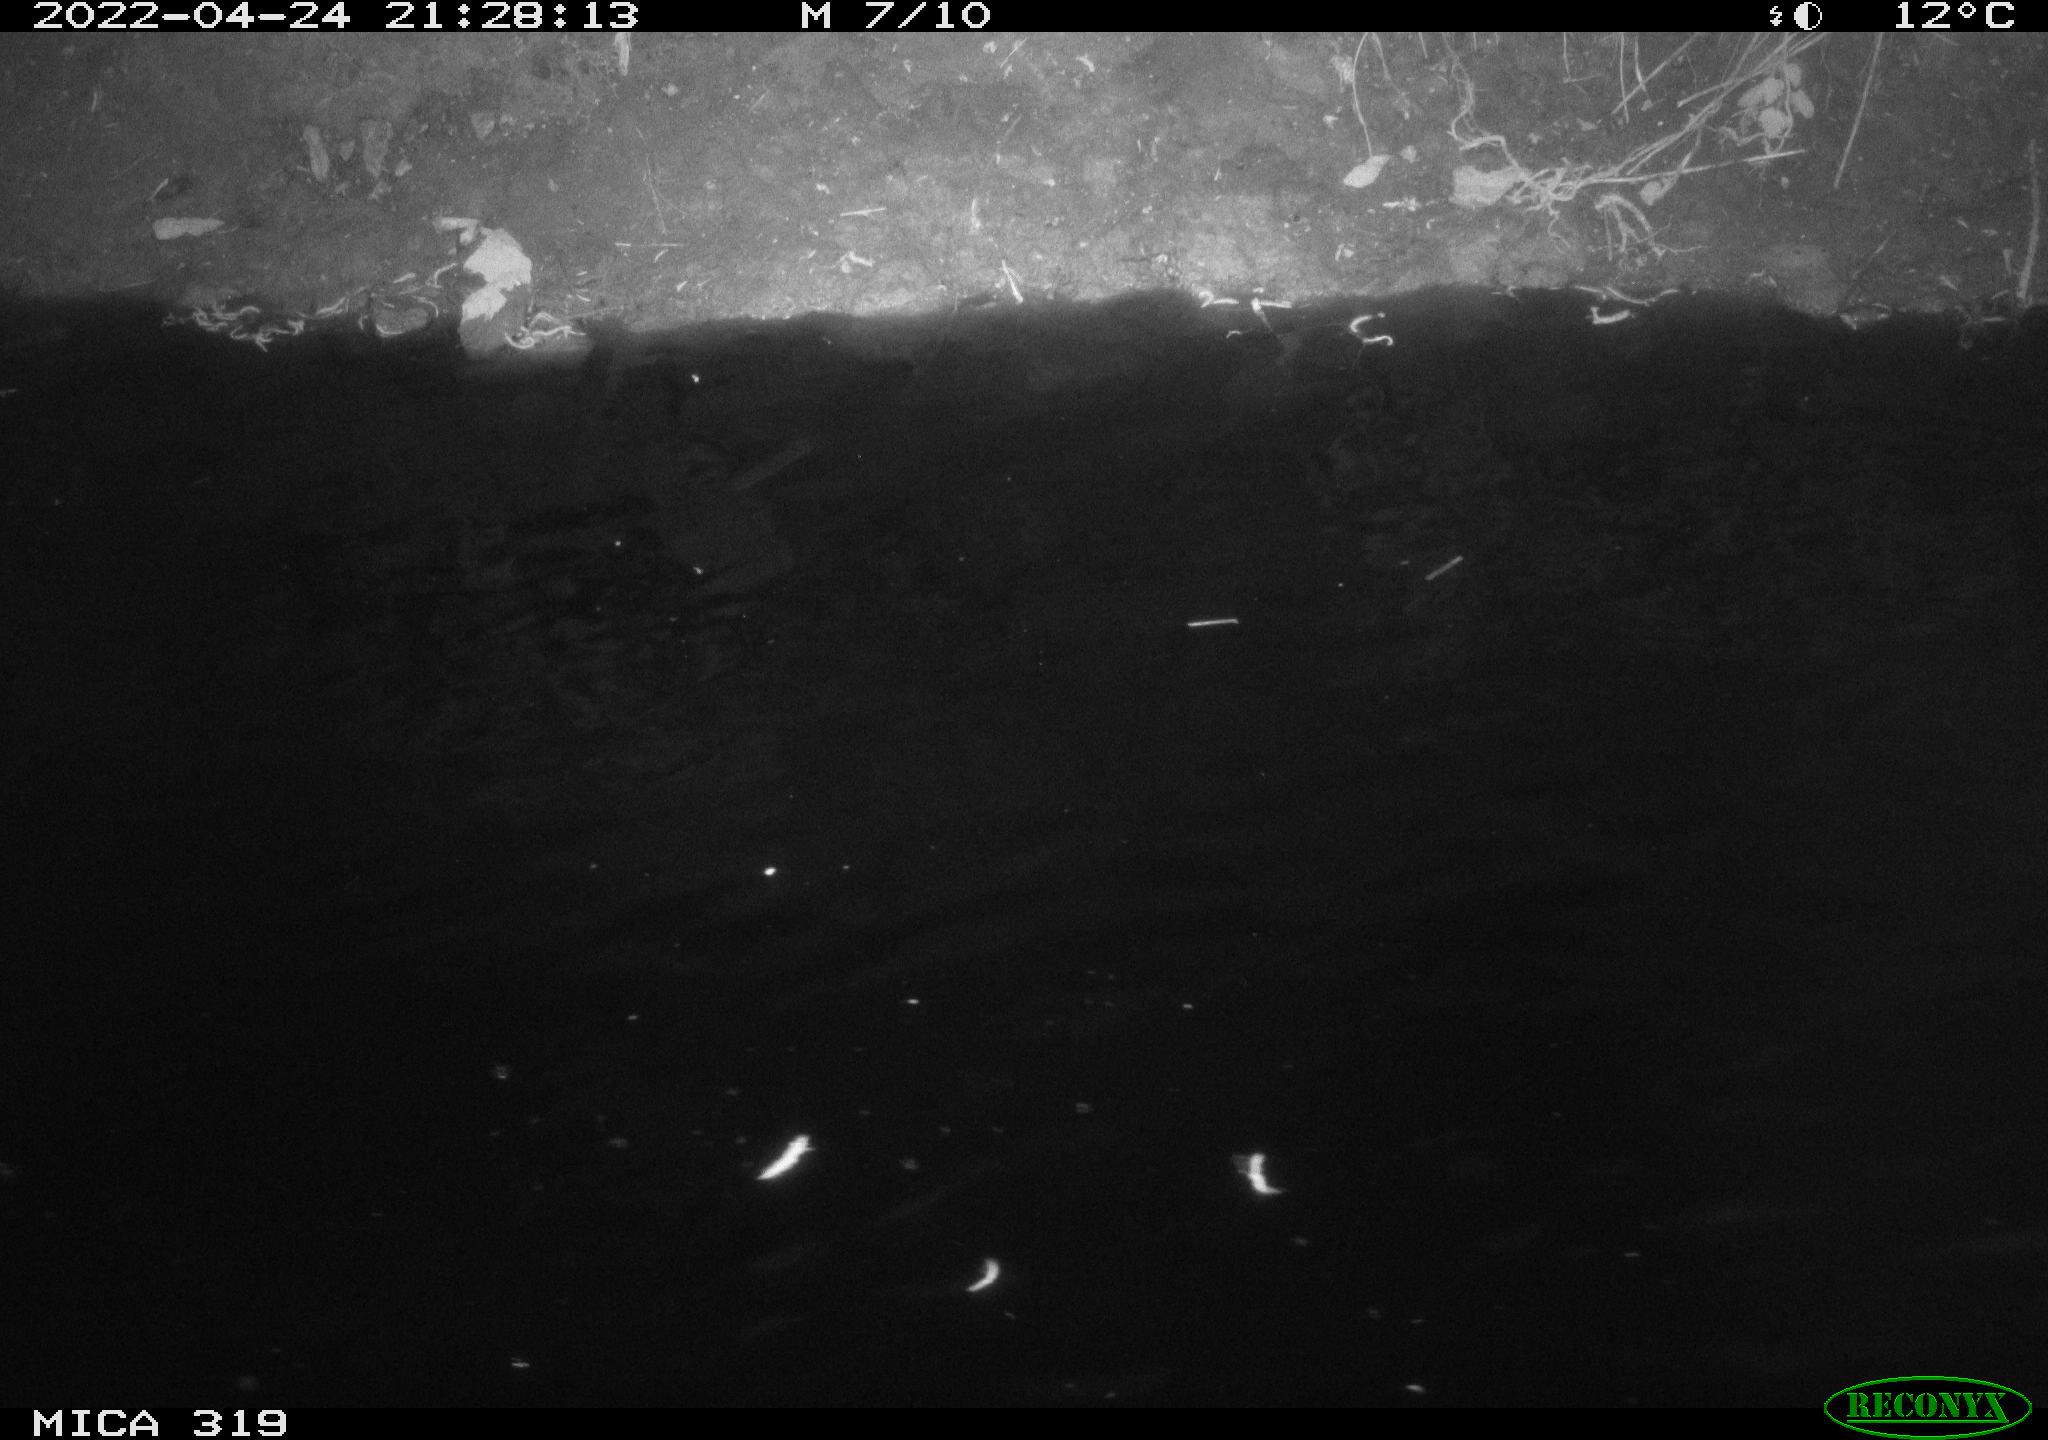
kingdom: Animalia
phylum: Chordata
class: Aves
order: Anseriformes
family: Anatidae
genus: Anas
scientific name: Anas platyrhynchos
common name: Mallard
